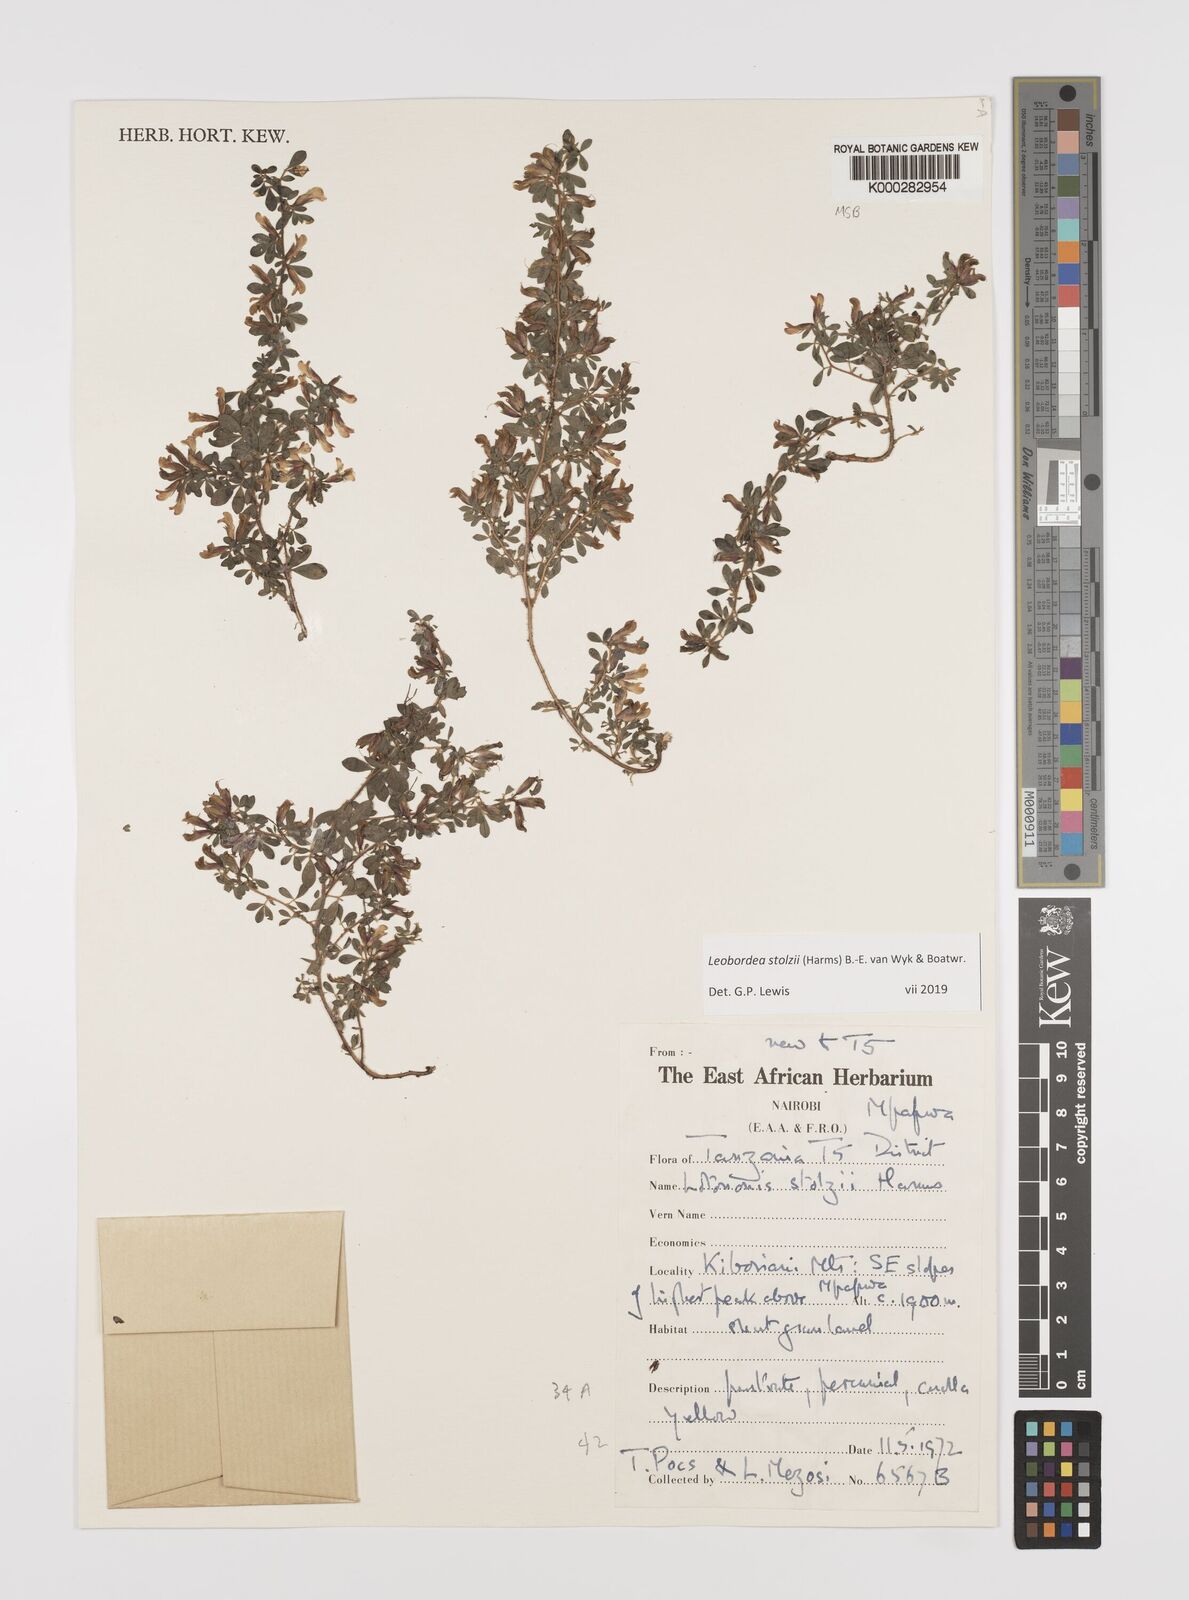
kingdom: Plantae
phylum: Tracheophyta
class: Magnoliopsida
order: Fabales
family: Fabaceae
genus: Leobordea
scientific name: Leobordea stolzii
